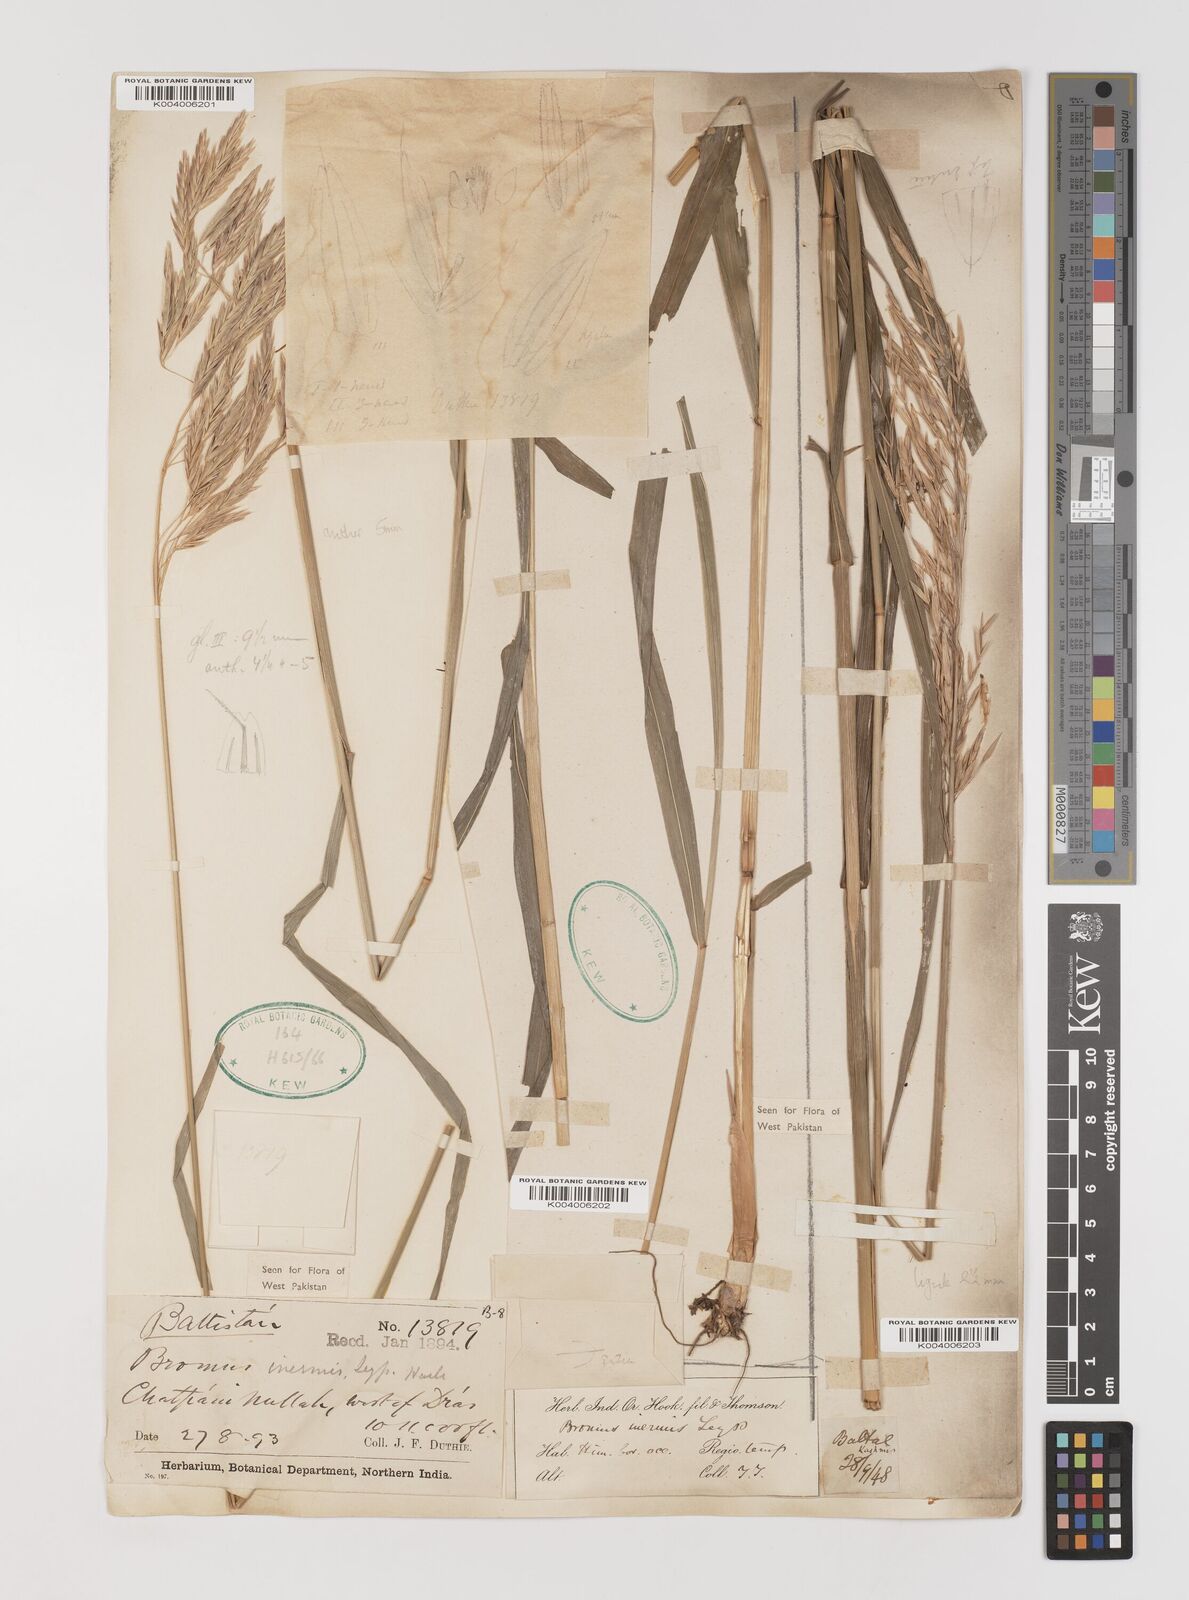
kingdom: Plantae
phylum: Tracheophyta
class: Liliopsida
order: Poales
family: Poaceae
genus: Bromus
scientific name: Bromus inermis
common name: Smooth brome
